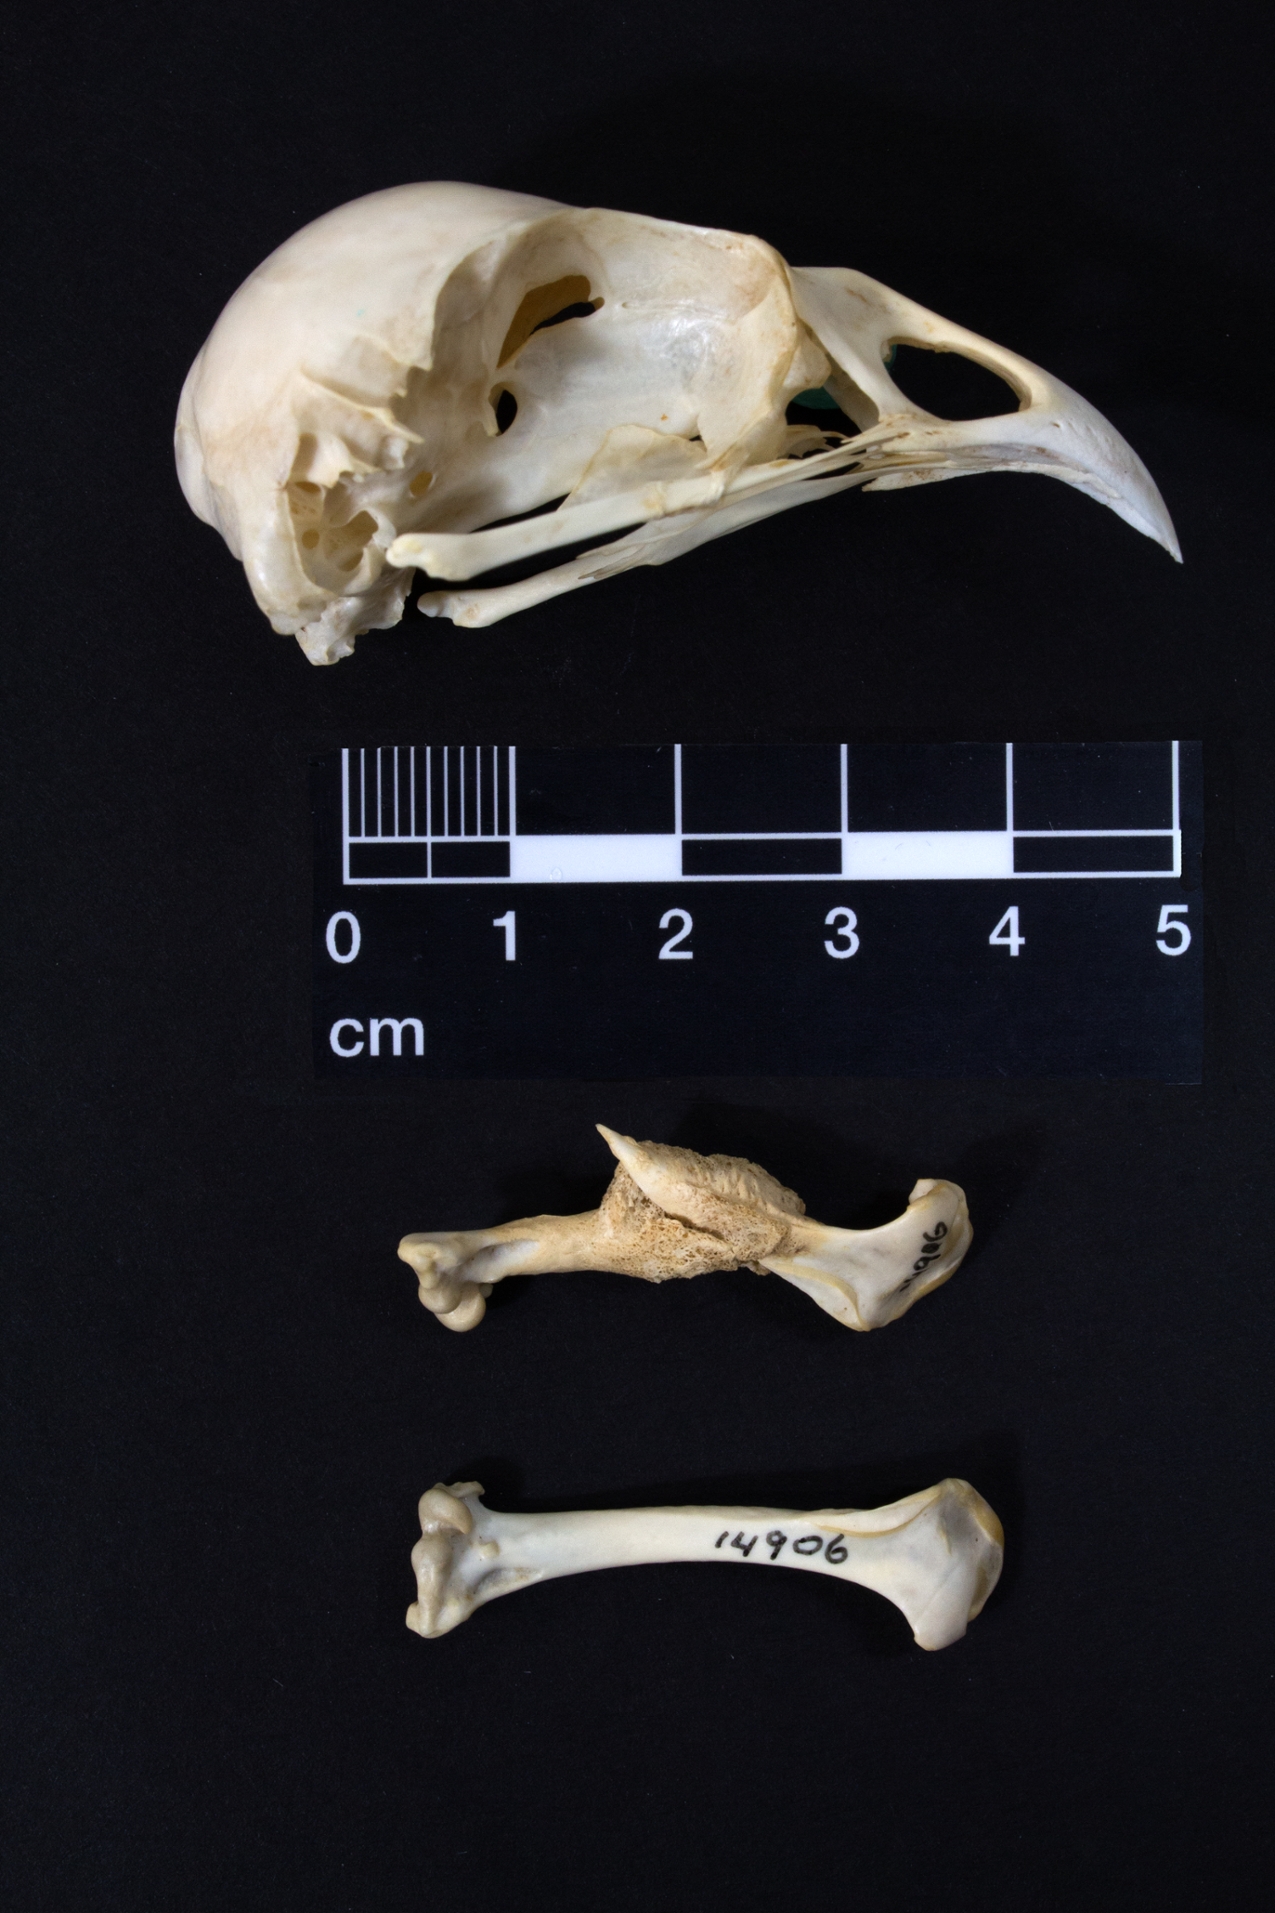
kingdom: Animalia
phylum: Chordata
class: Aves
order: Passeriformes
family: Callaeatidae
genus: Callaeas
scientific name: Callaeas cinereus
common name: South island kokako
